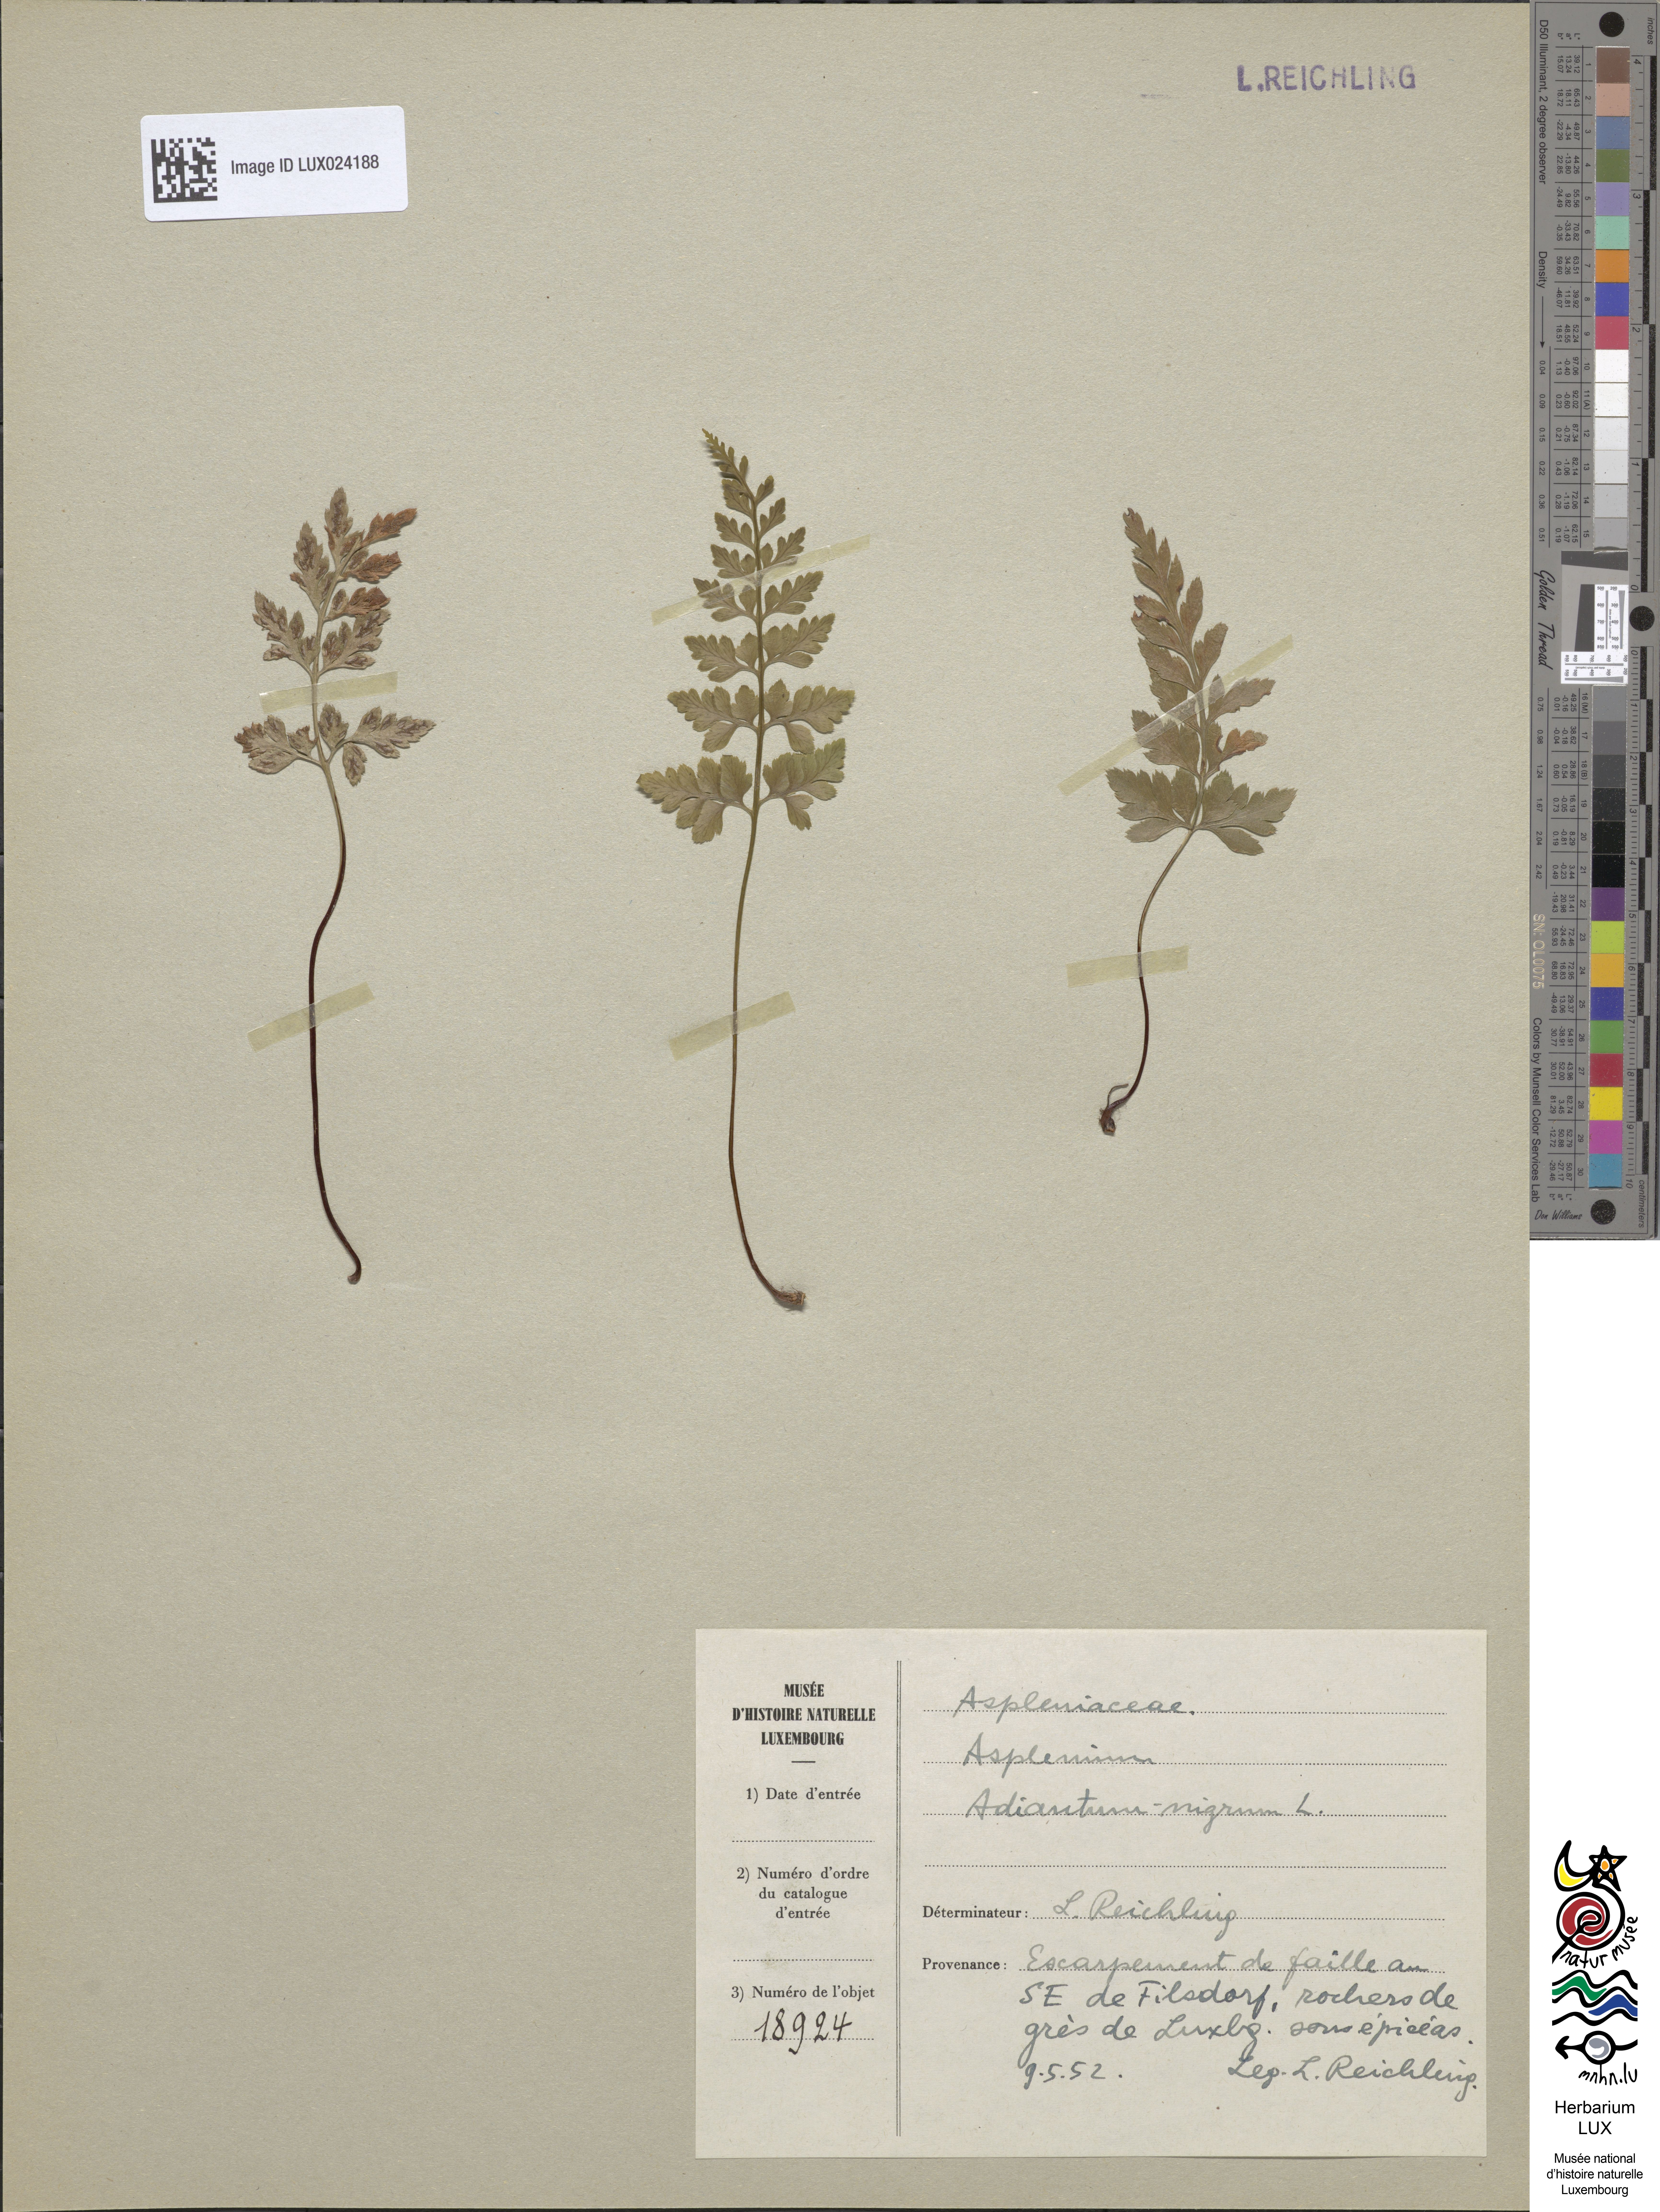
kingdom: Plantae
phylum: Tracheophyta
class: Polypodiopsida
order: Polypodiales
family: Aspleniaceae
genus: Asplenium
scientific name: Asplenium adiantum-nigrum
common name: Black spleenwort
